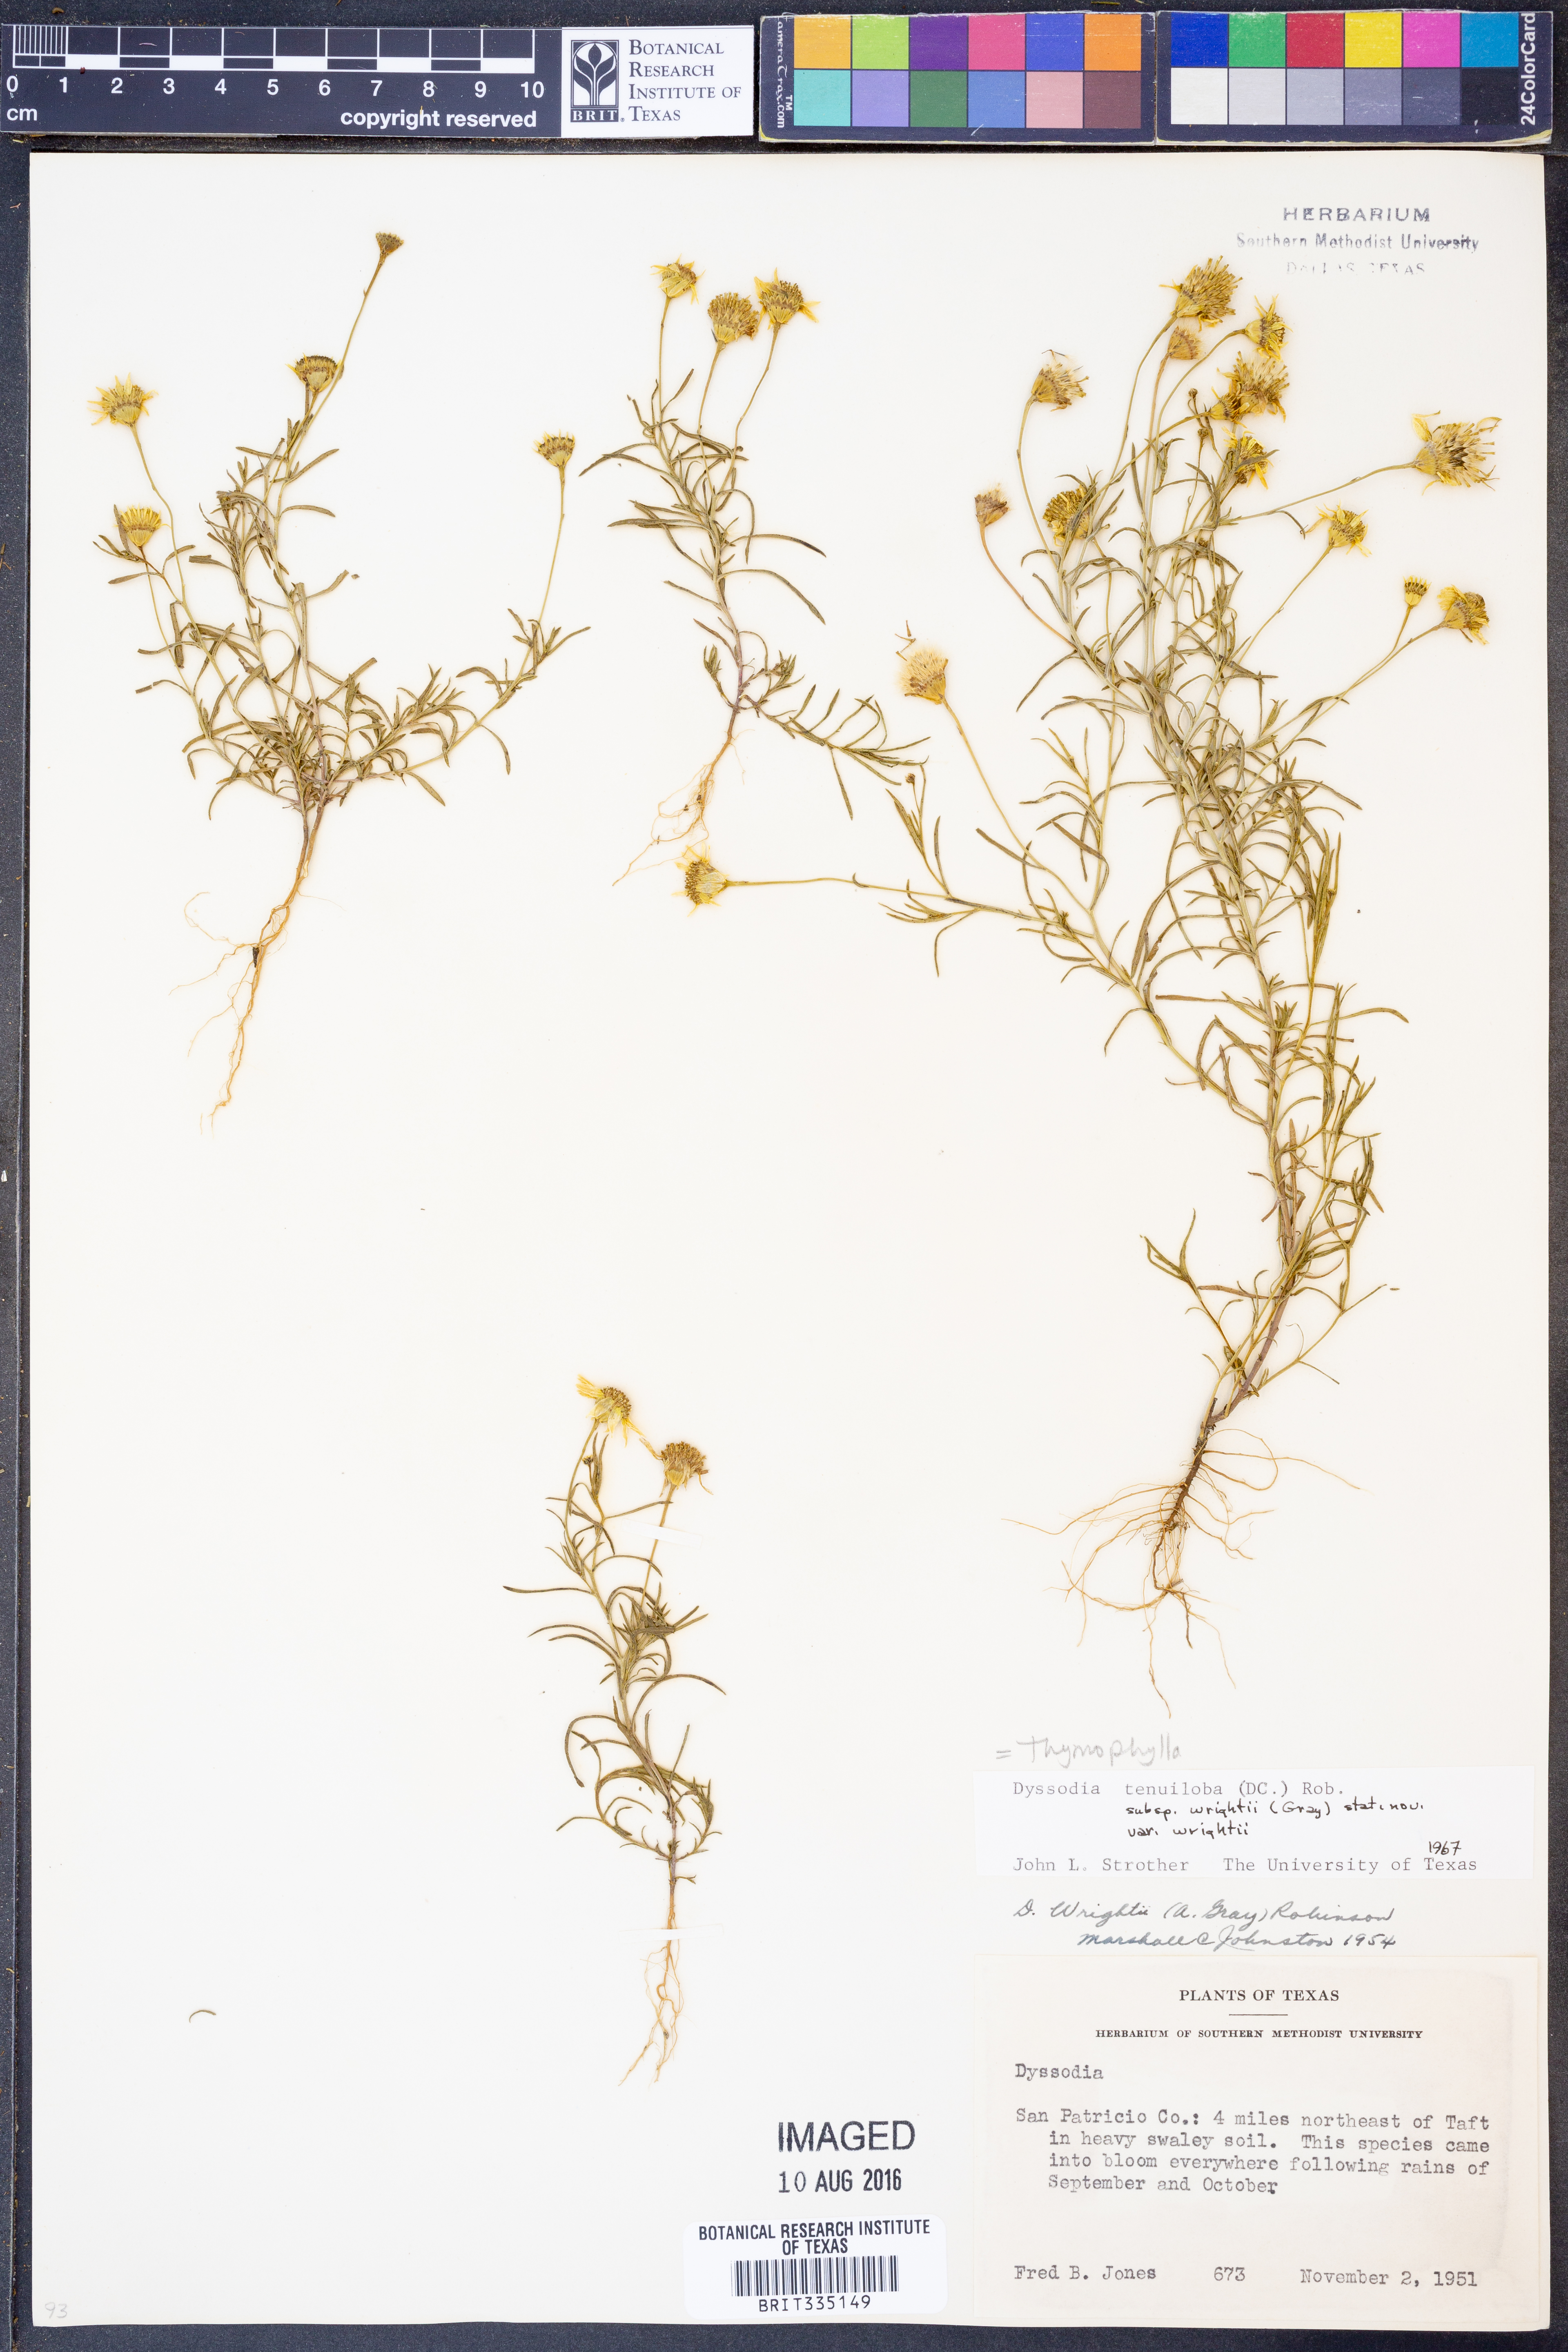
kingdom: Plantae
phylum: Tracheophyta
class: Magnoliopsida
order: Asterales
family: Asteraceae
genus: Thymophylla
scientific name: Thymophylla tenuiloba
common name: Dahlberg's daisy
